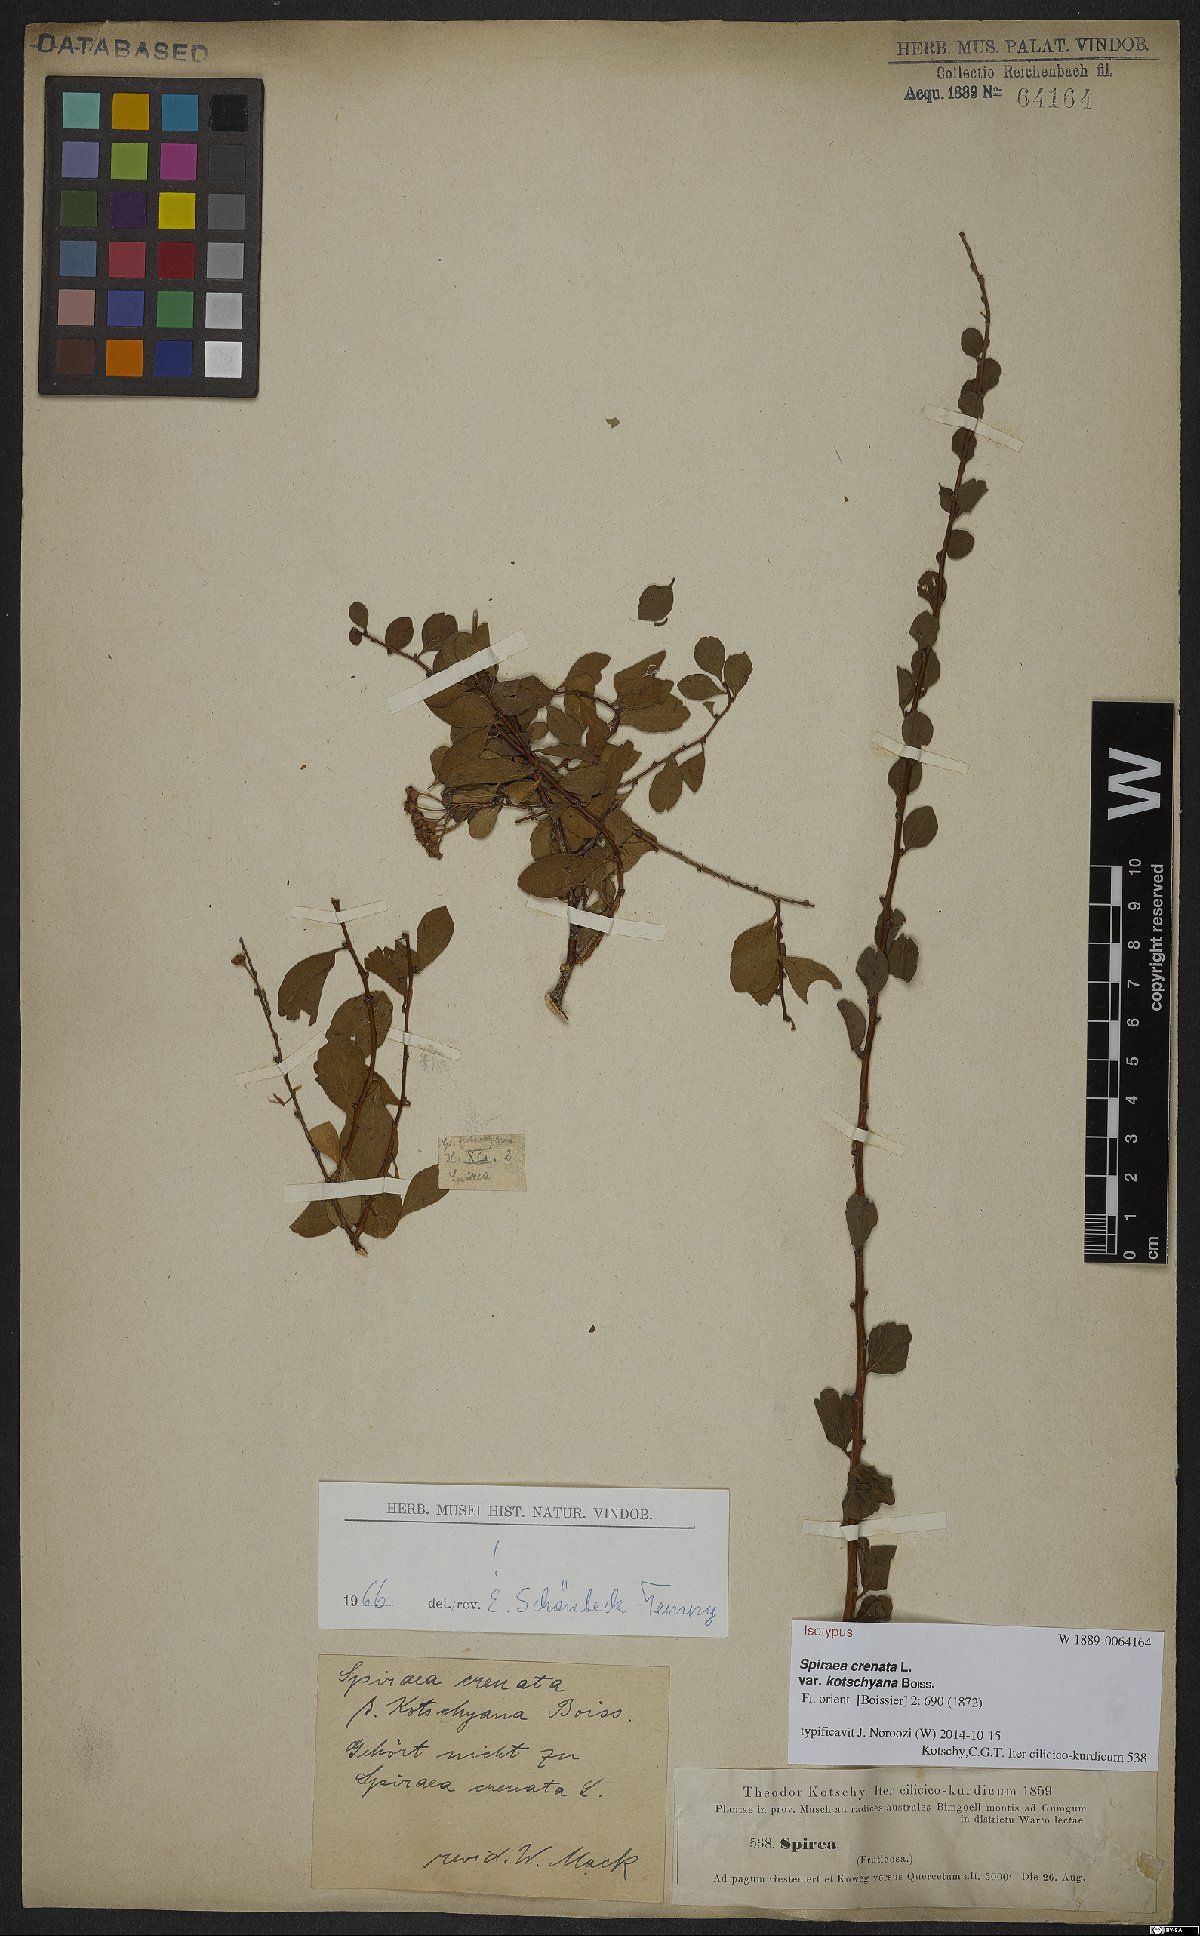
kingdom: Plantae
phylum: Tracheophyta
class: Magnoliopsida
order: Rosales
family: Rosaceae
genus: Spiraea
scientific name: Spiraea crenata
